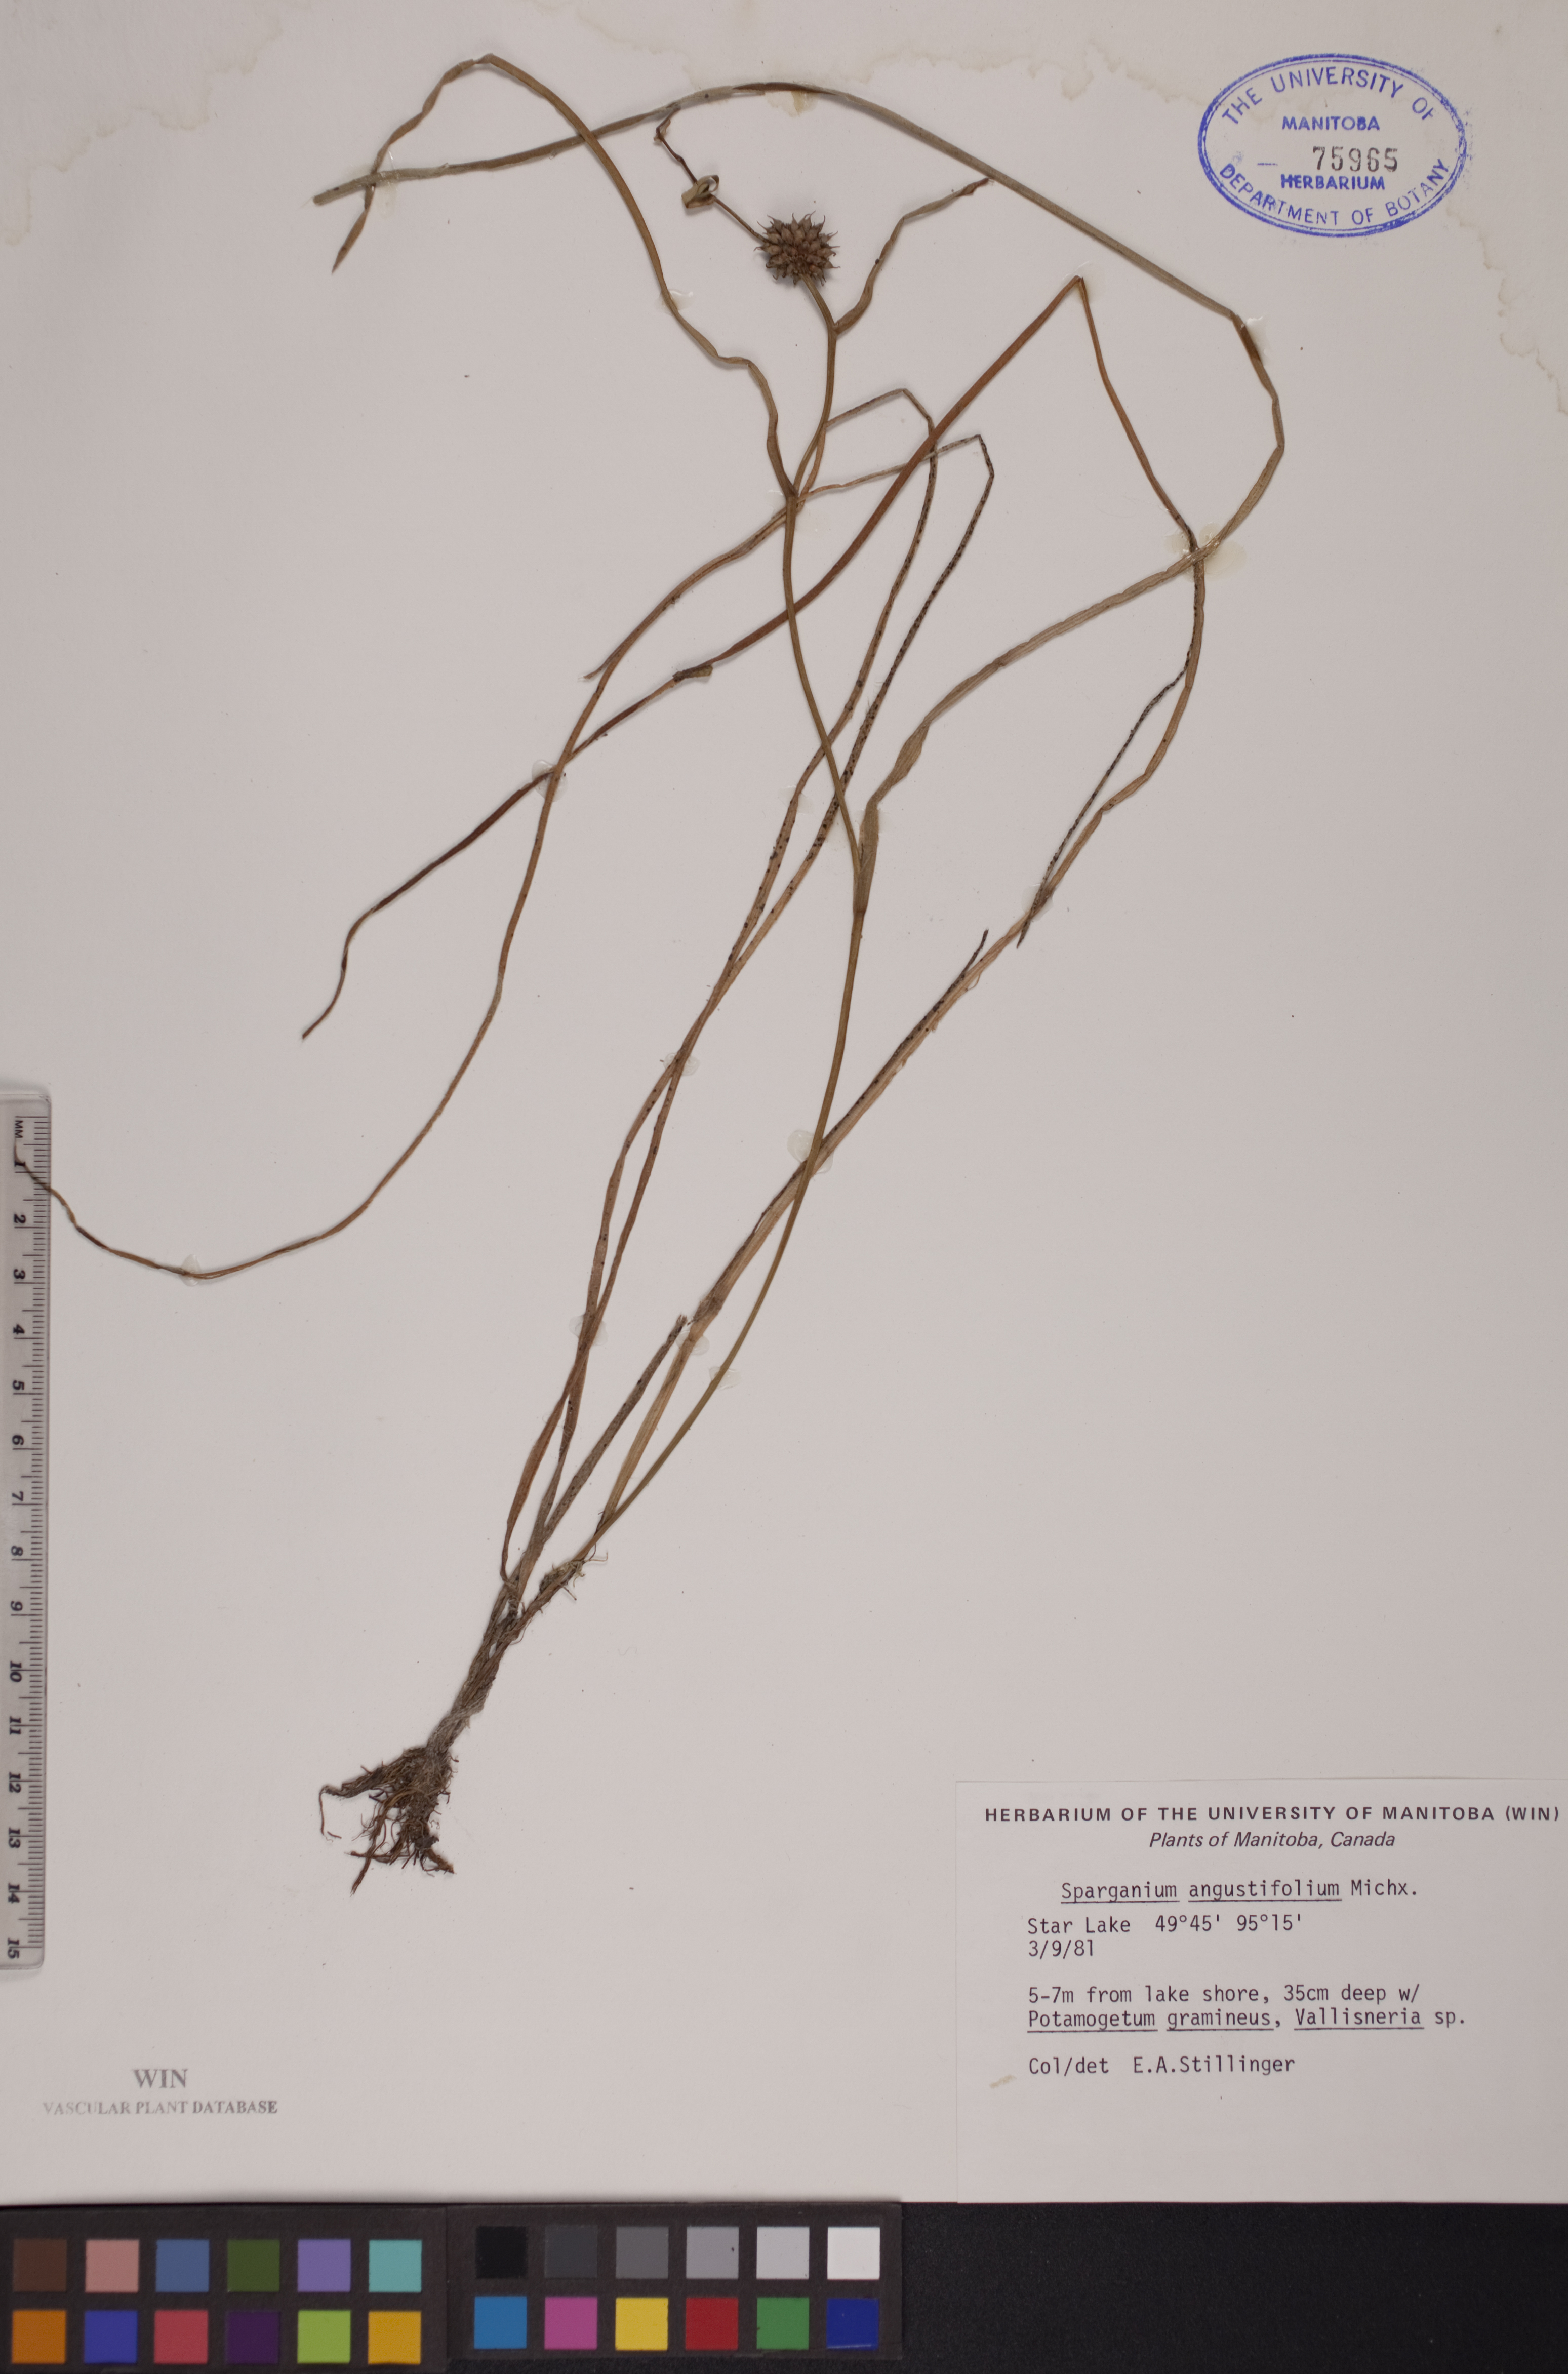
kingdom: Plantae
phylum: Tracheophyta
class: Liliopsida
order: Poales
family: Typhaceae
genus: Sparganium
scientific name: Sparganium angustifolium
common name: Floating bur-reed
